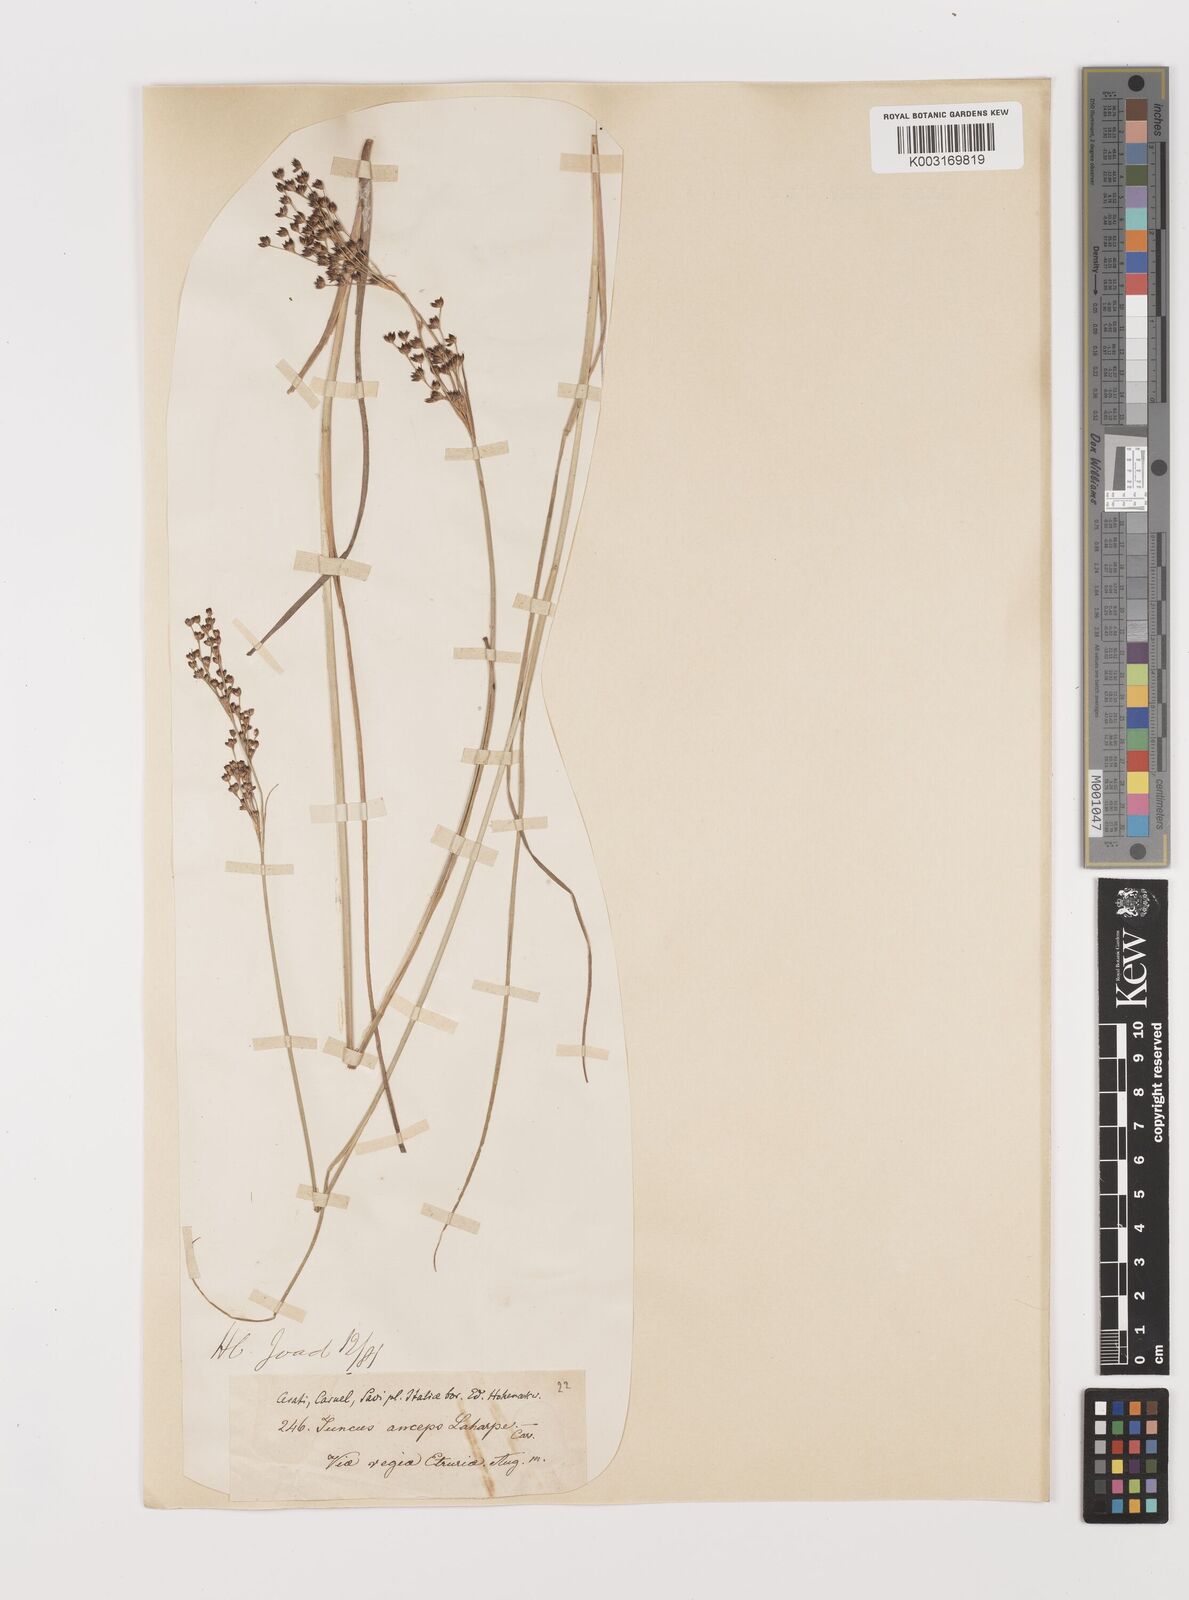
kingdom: Plantae
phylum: Tracheophyta
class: Liliopsida
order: Poales
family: Juncaceae
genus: Juncus
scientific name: Juncus anceps
